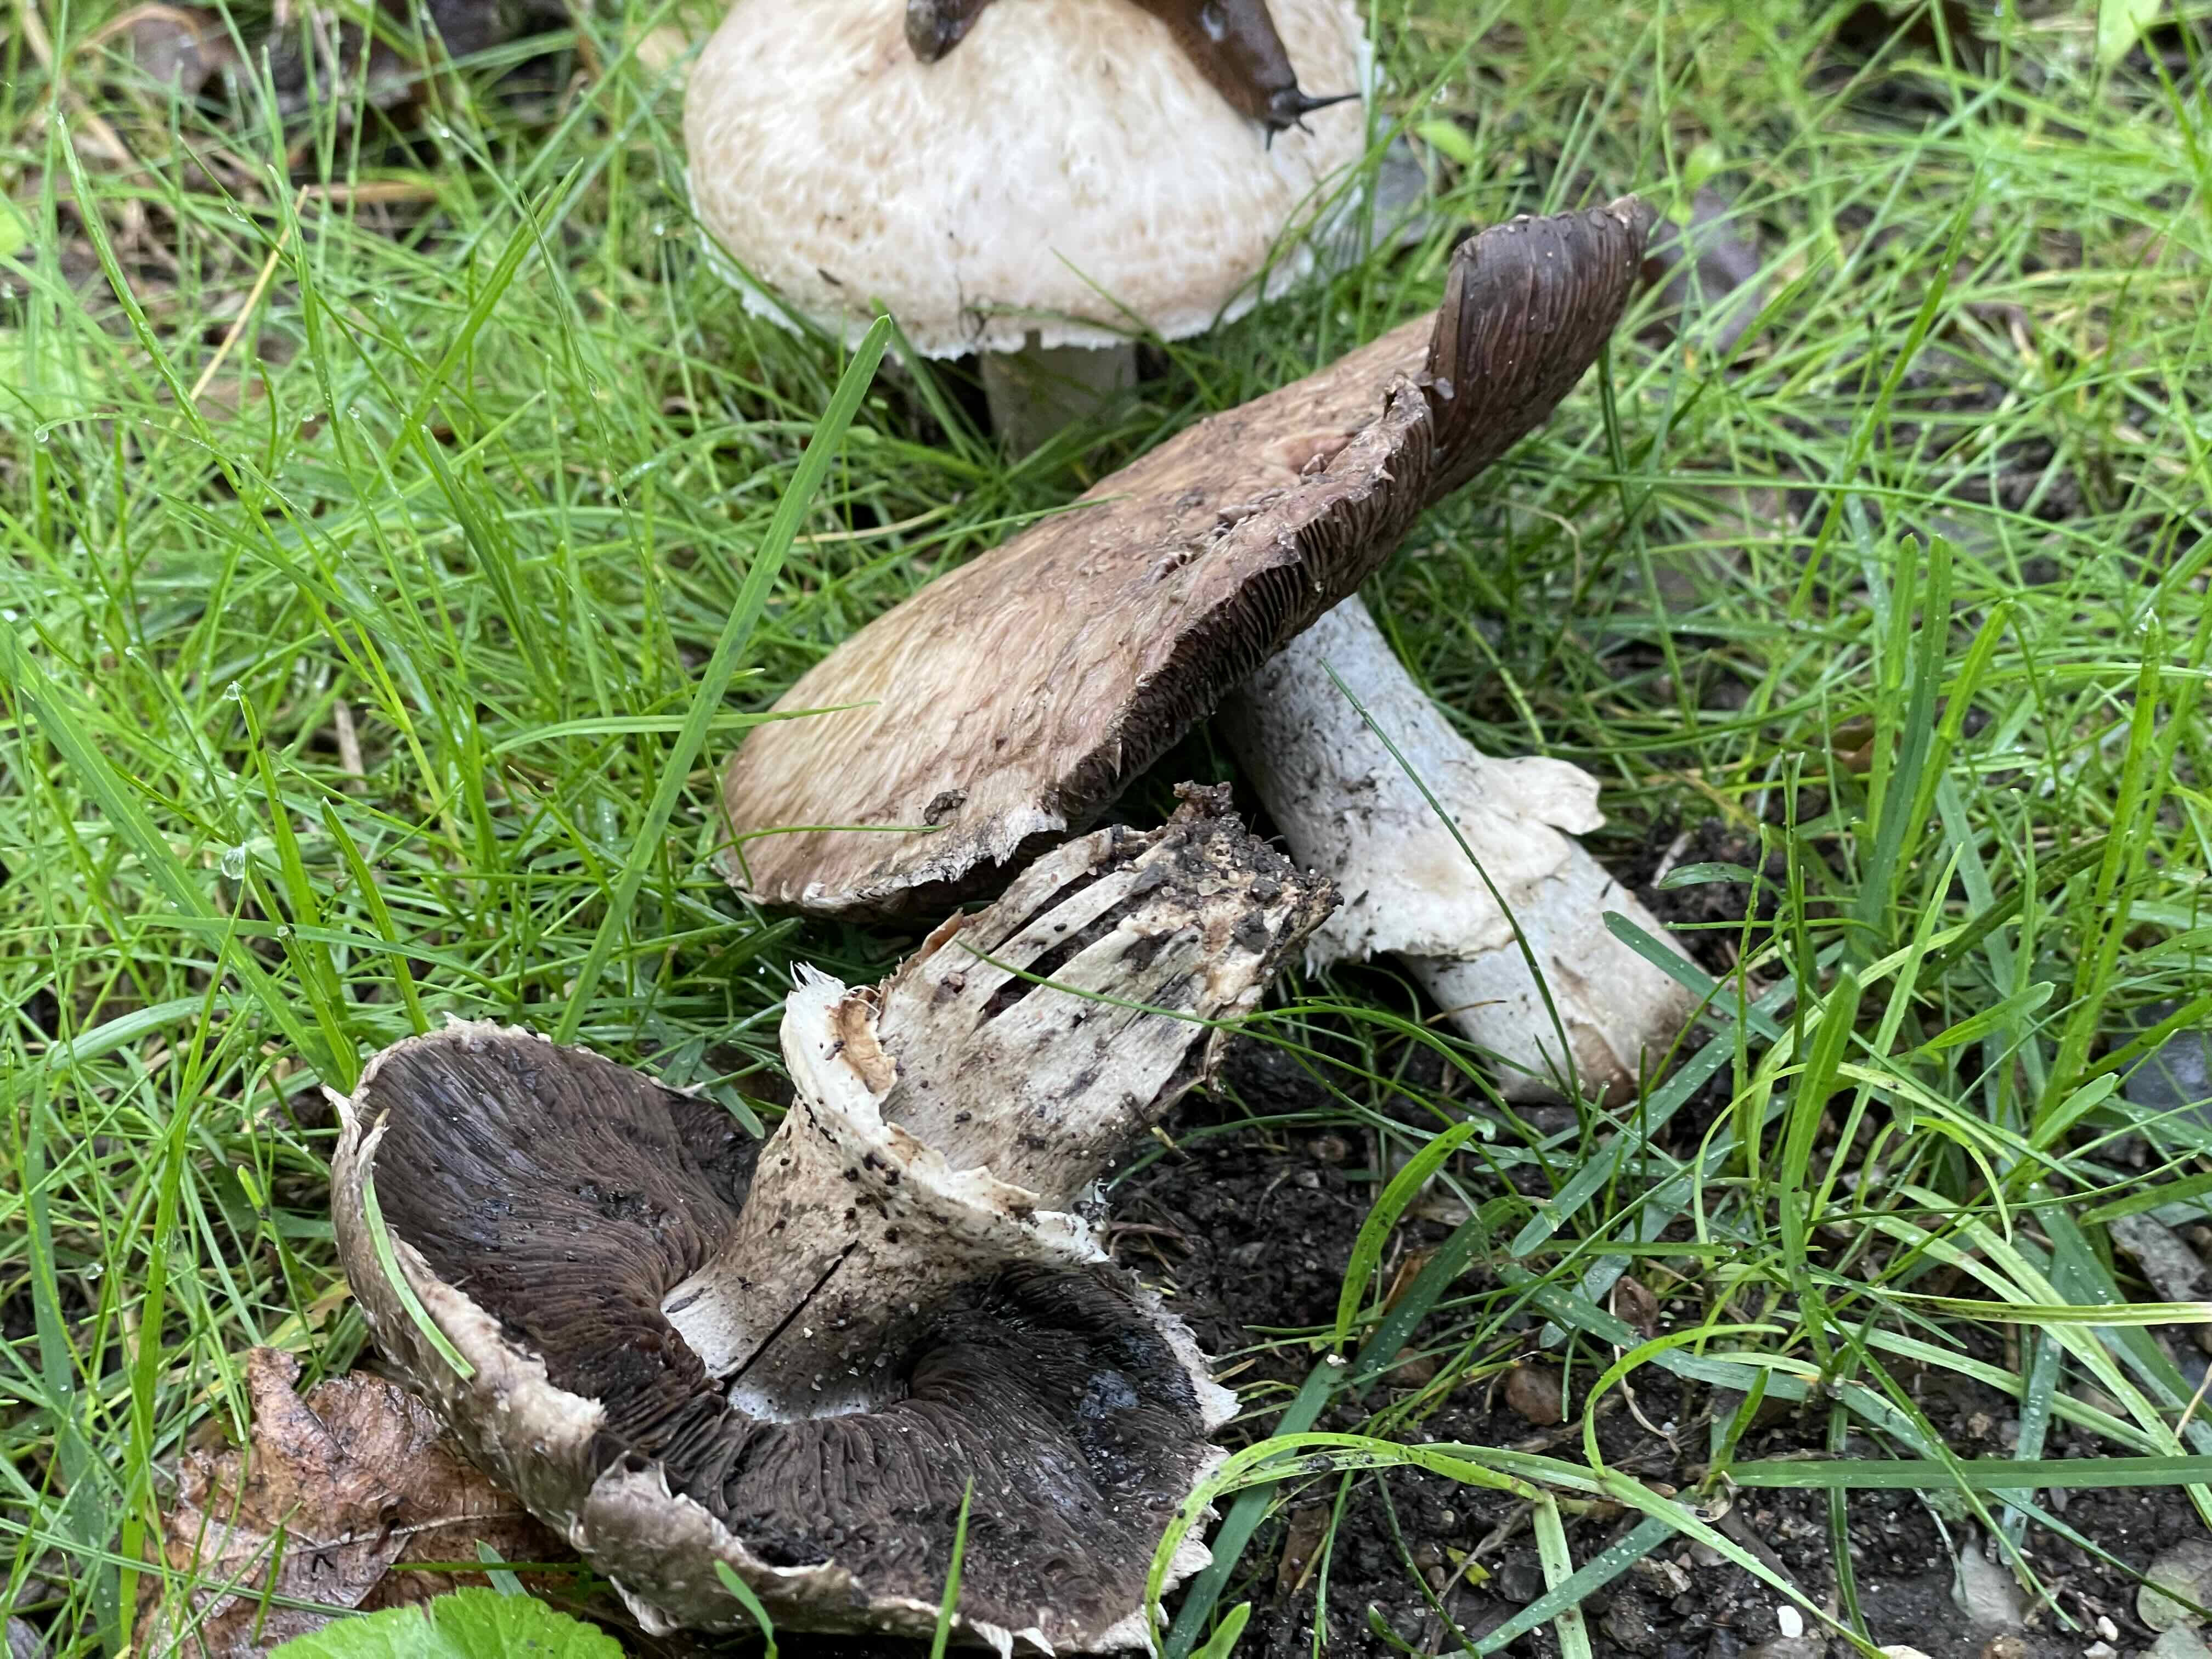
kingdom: Fungi
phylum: Basidiomycota
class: Agaricomycetes
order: Agaricales
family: Agaricaceae
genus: Agaricus
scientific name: Agaricus subperonatus
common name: knippe-champignon
